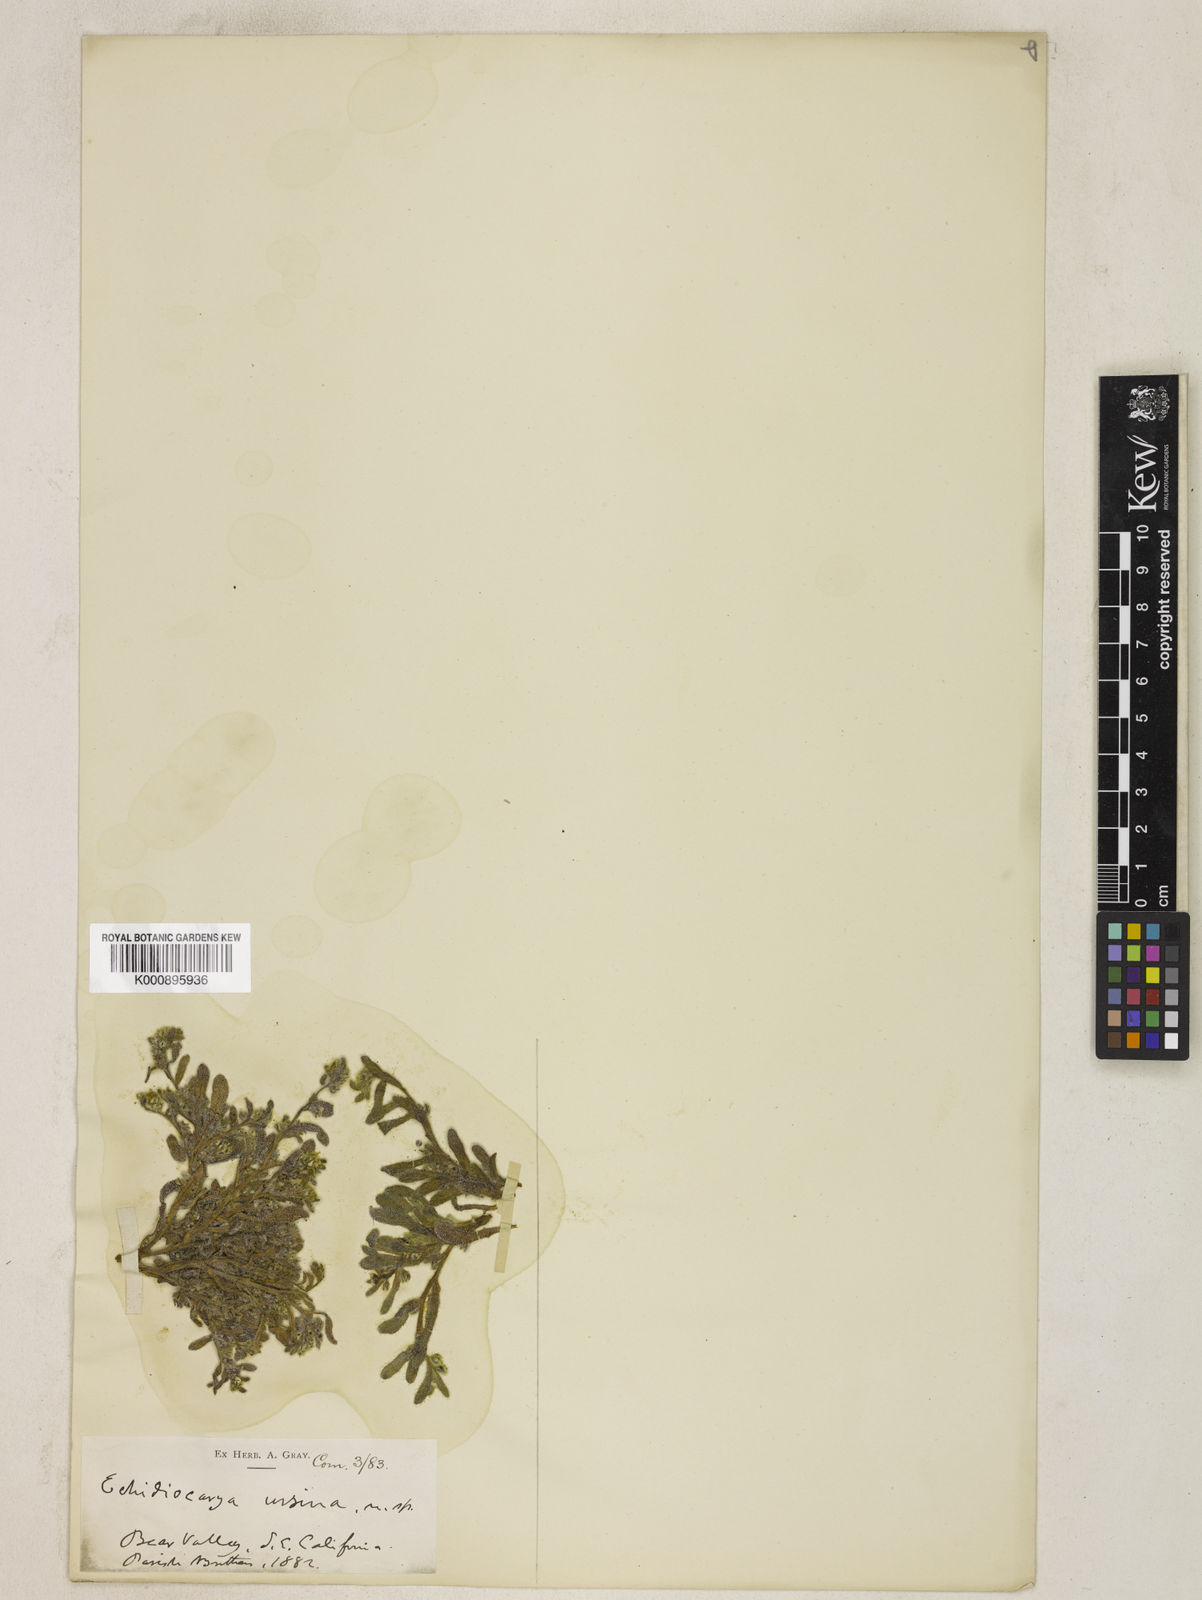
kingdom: Plantae
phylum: Tracheophyta
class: Magnoliopsida
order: Boraginales
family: Boraginaceae
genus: Plagiobothrys
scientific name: Plagiobothrys
